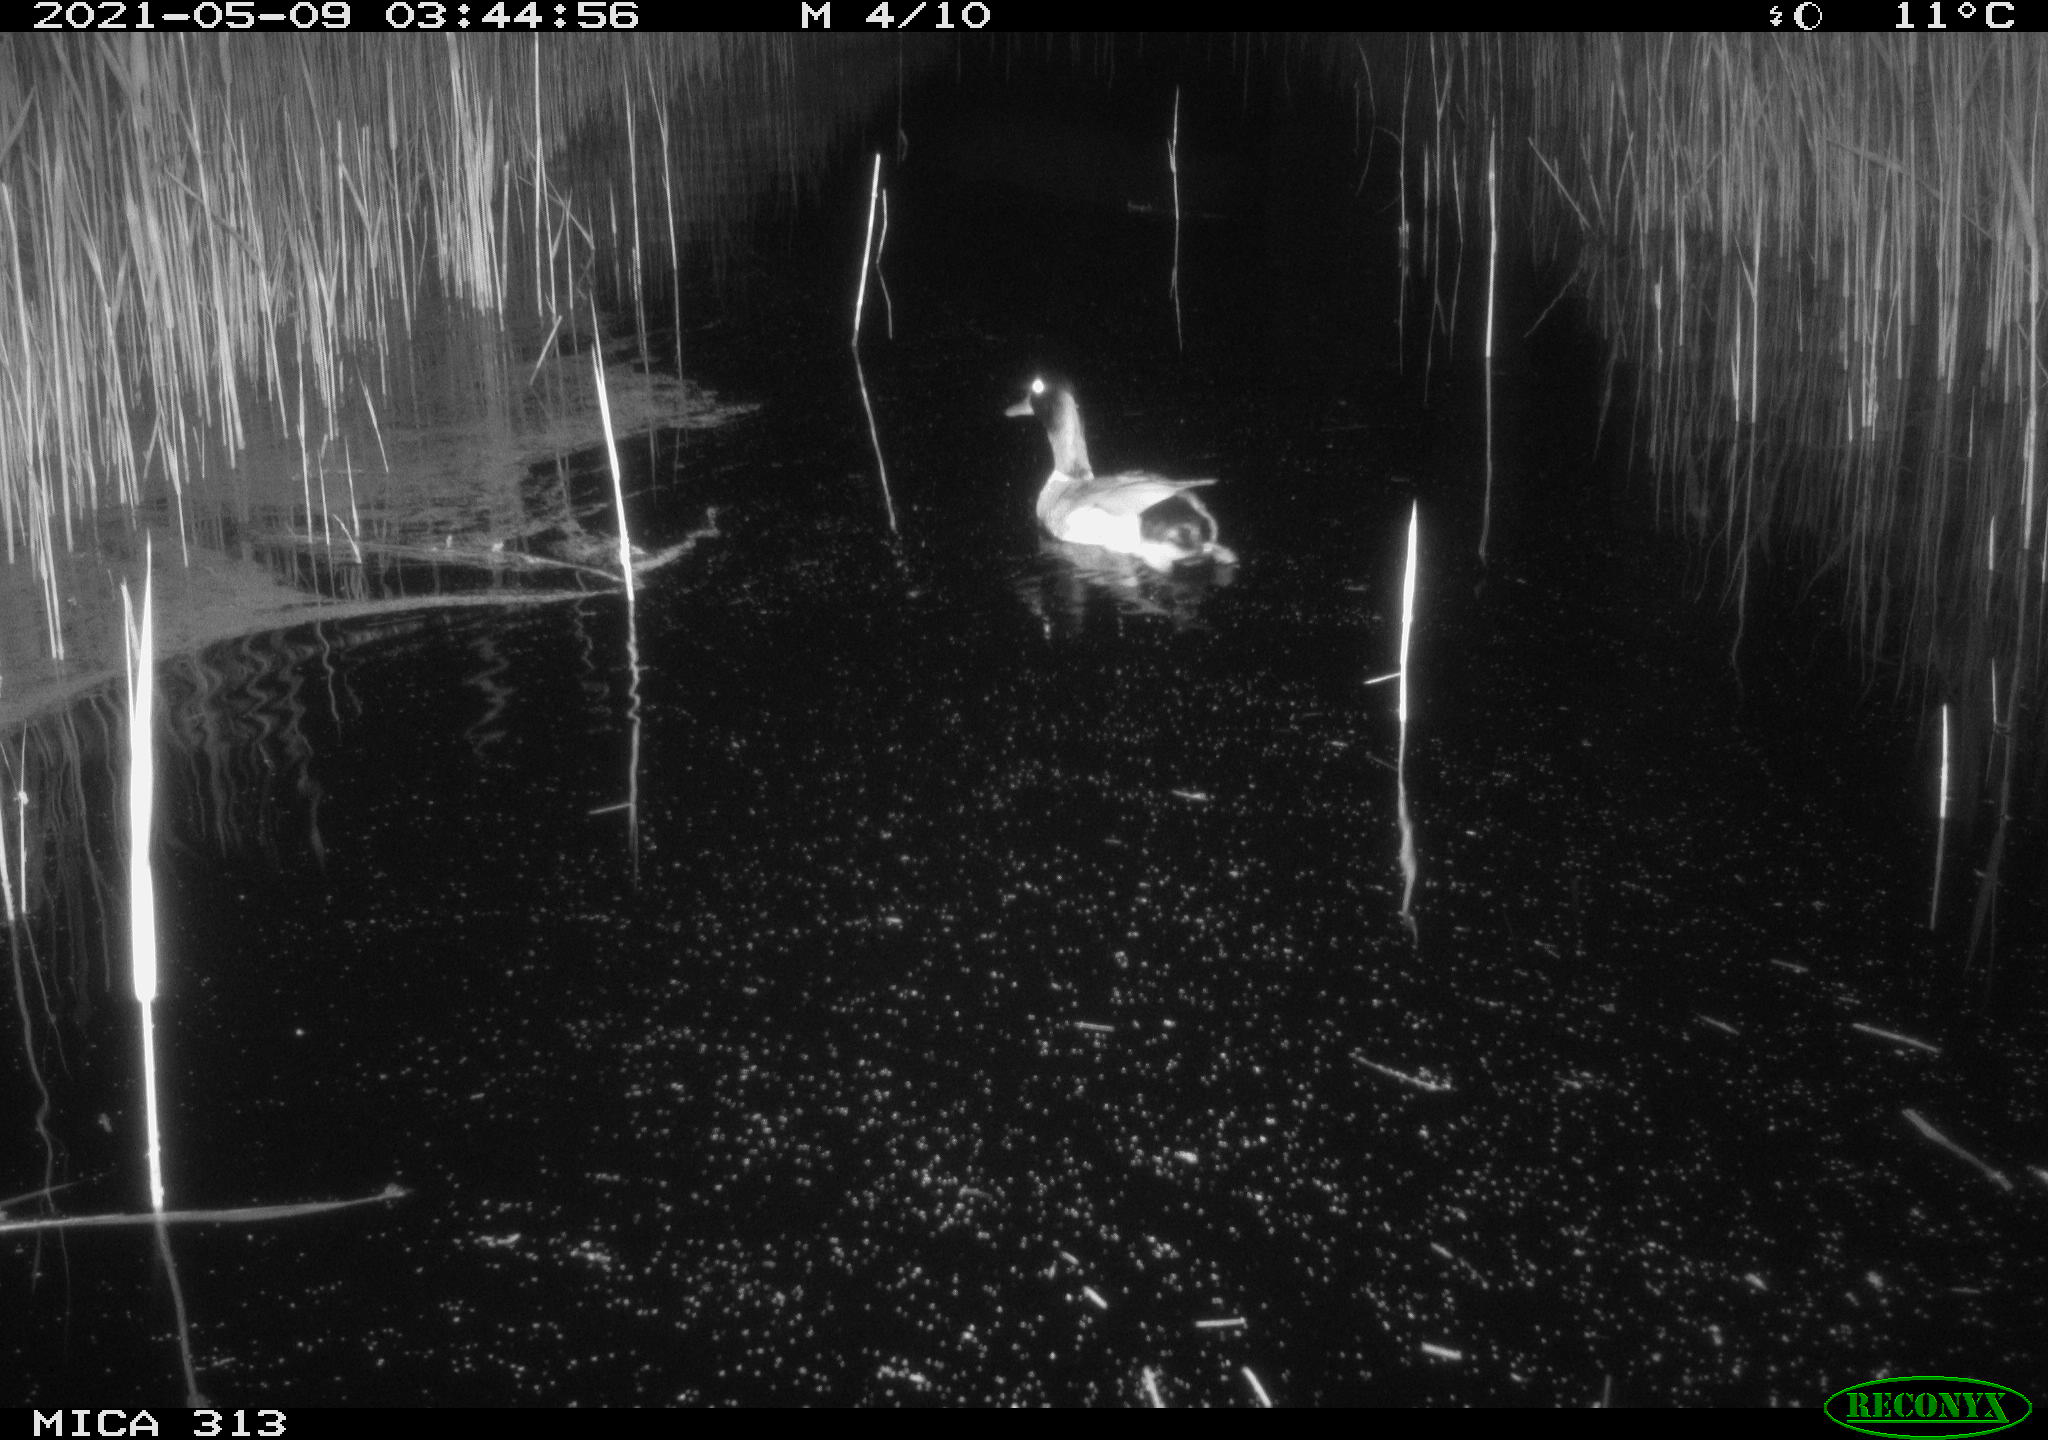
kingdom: Animalia
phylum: Chordata
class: Aves
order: Anseriformes
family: Anatidae
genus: Anas
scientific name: Anas platyrhynchos
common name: Mallard
